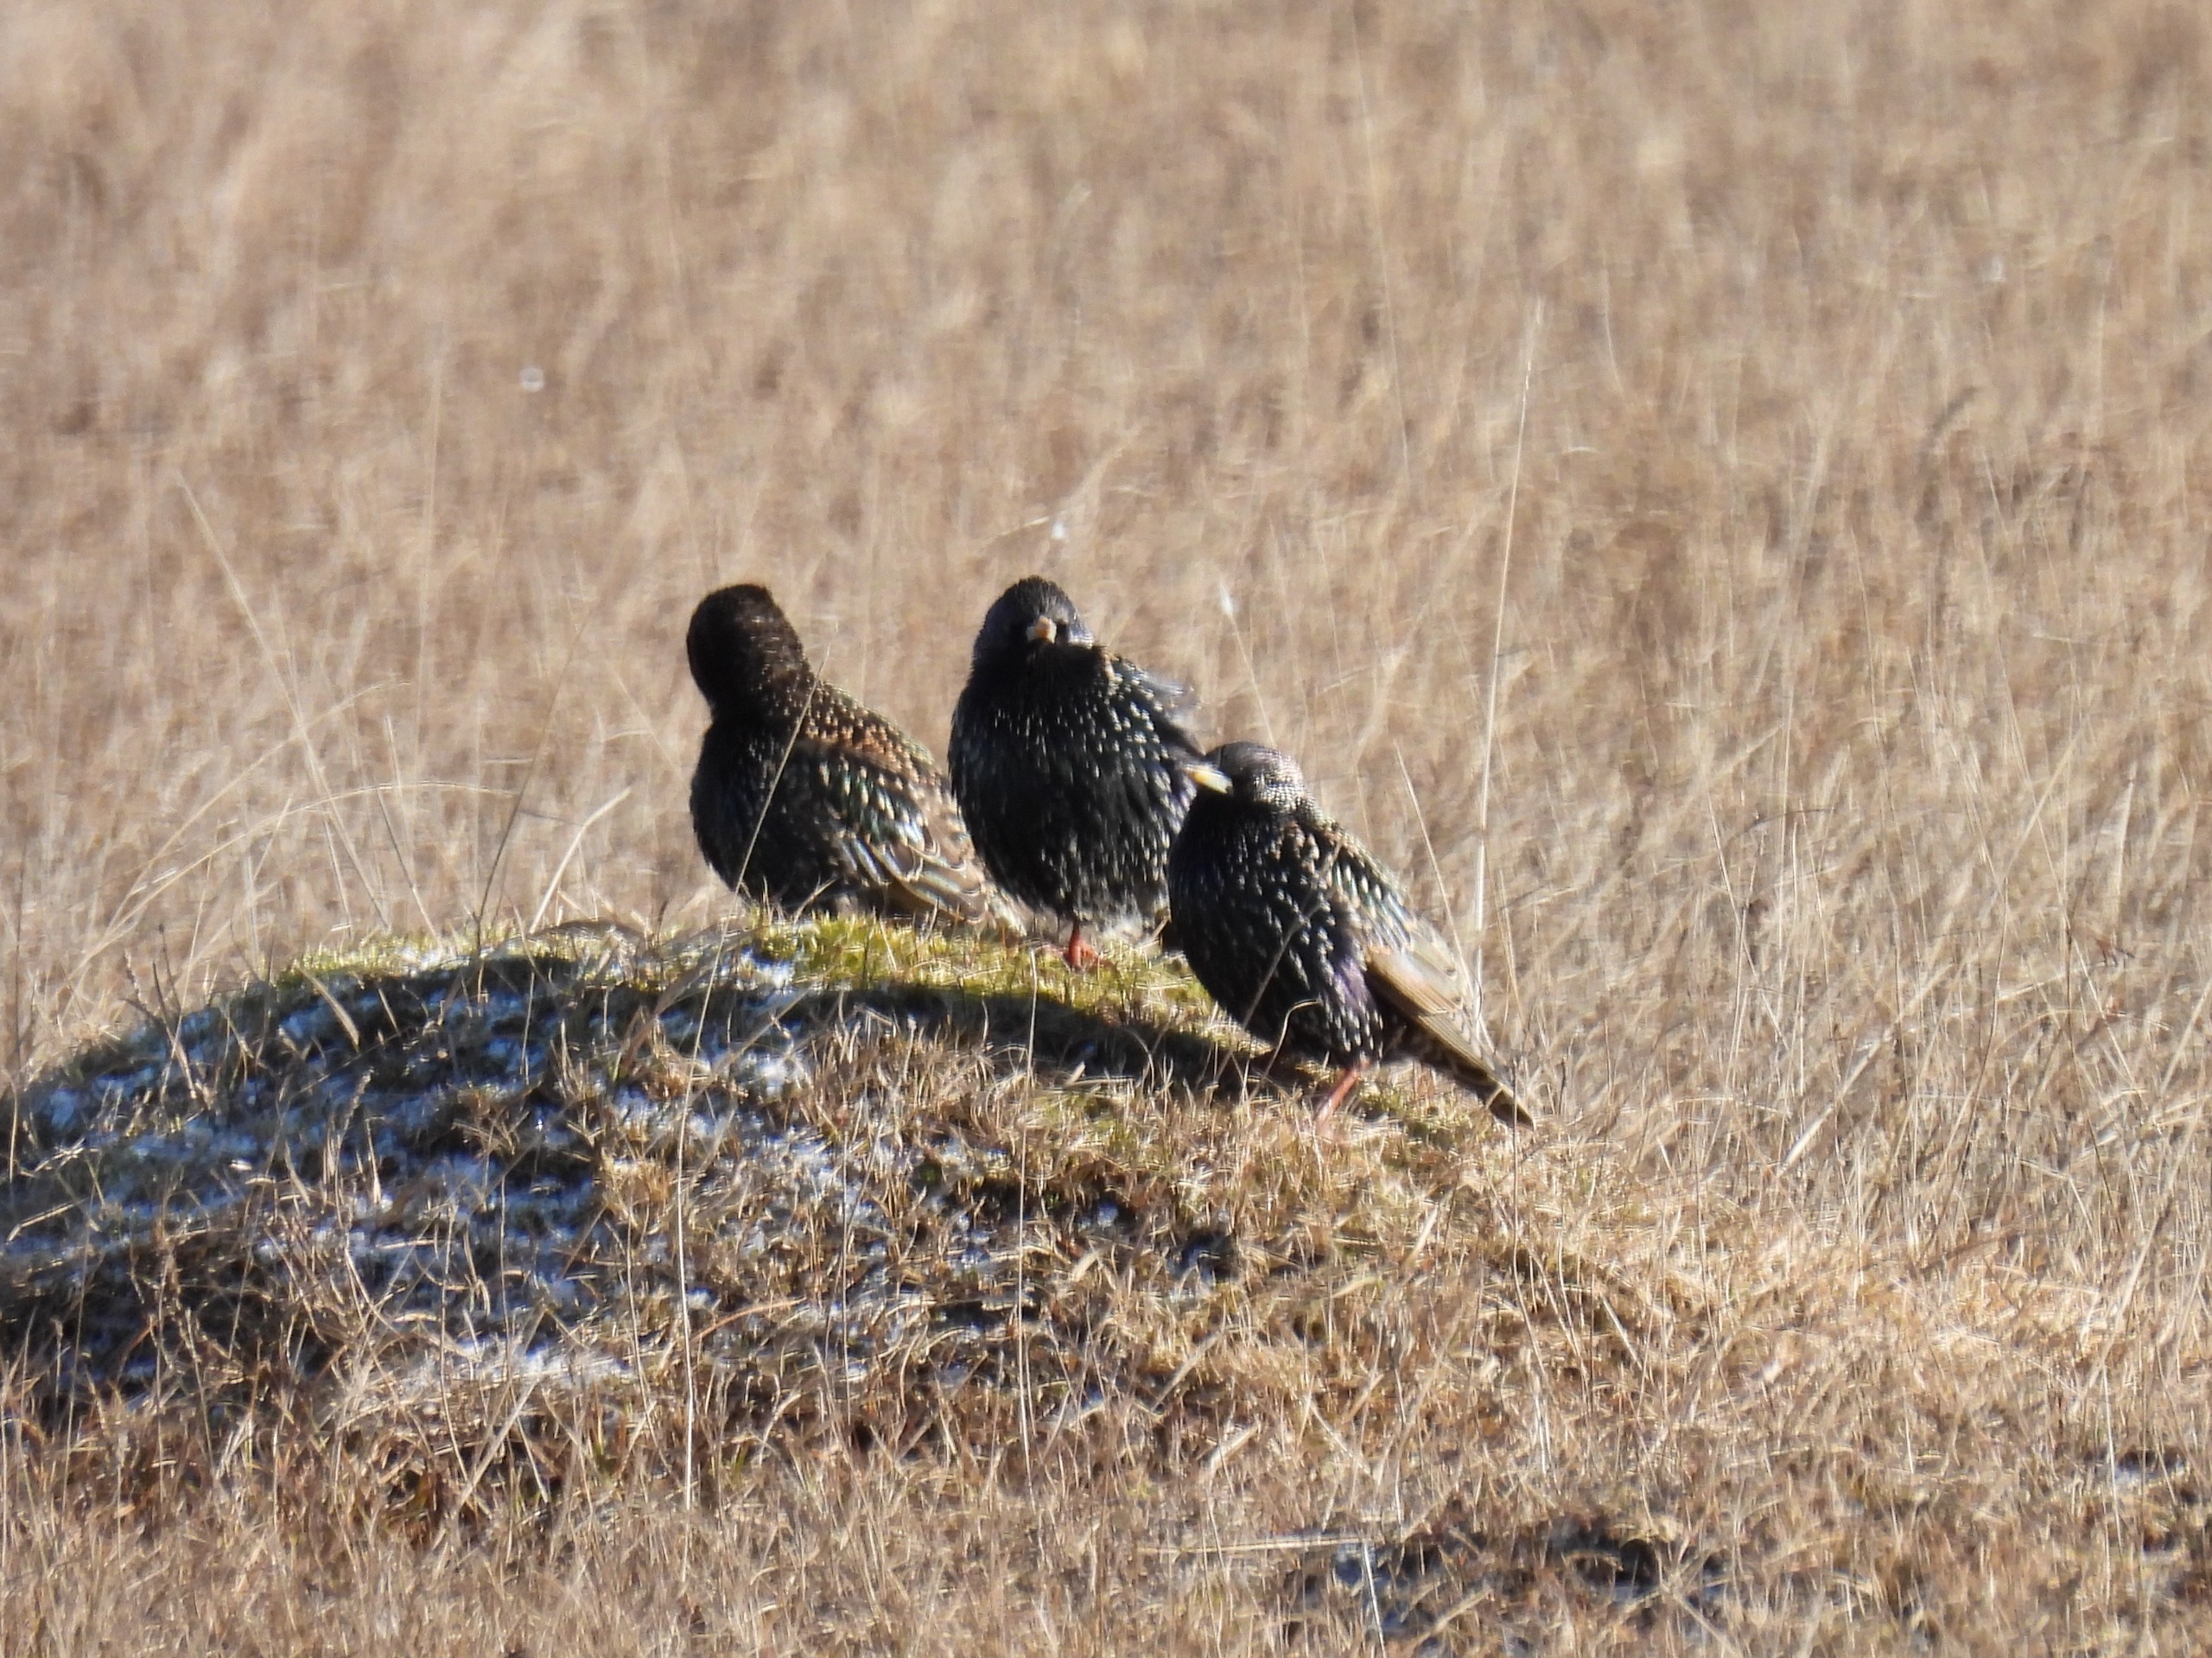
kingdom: Animalia
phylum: Chordata
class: Aves
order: Passeriformes
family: Sturnidae
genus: Sturnus
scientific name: Sturnus vulgaris
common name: Stær
